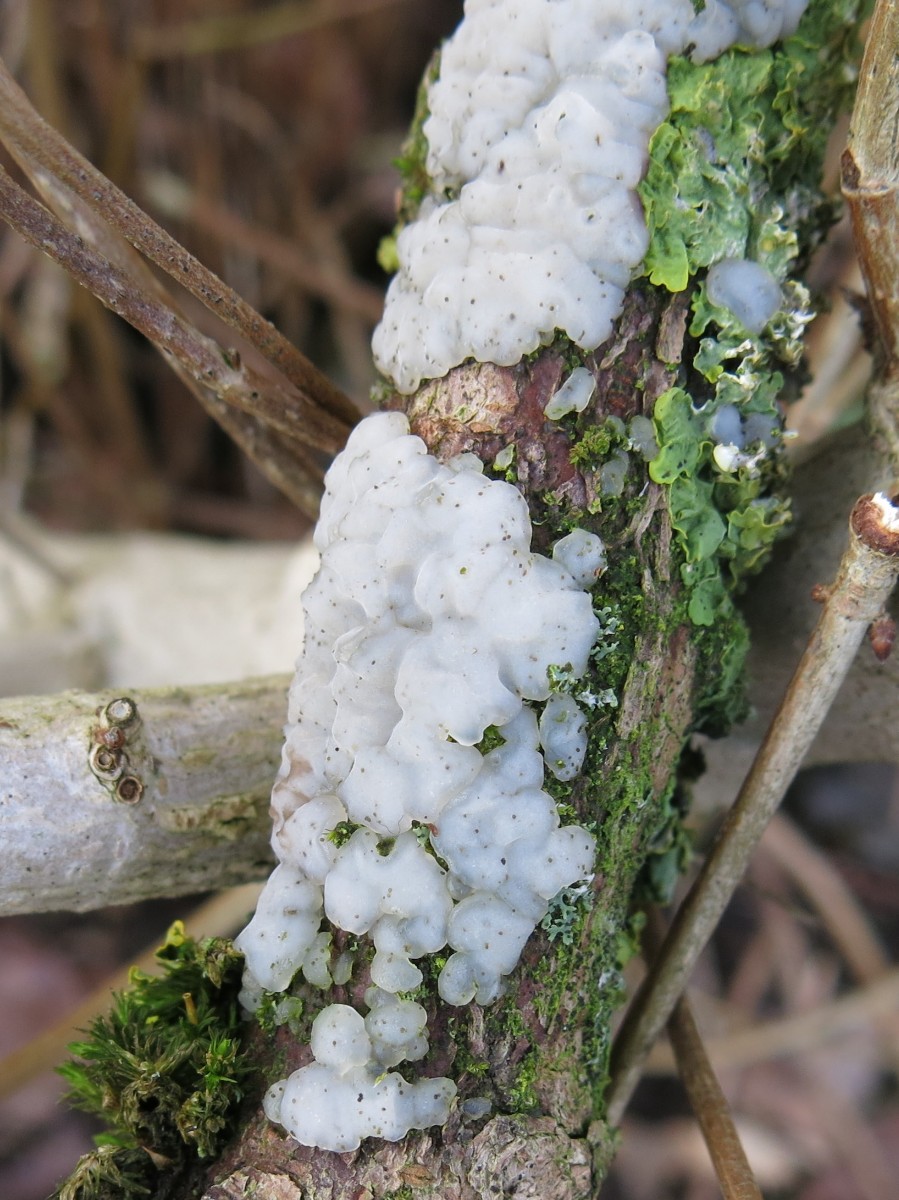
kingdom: Fungi
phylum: Basidiomycota
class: Agaricomycetes
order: Auriculariales
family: Auriculariaceae
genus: Exidia
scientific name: Exidia thuretiana
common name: hvidlig bævretop
